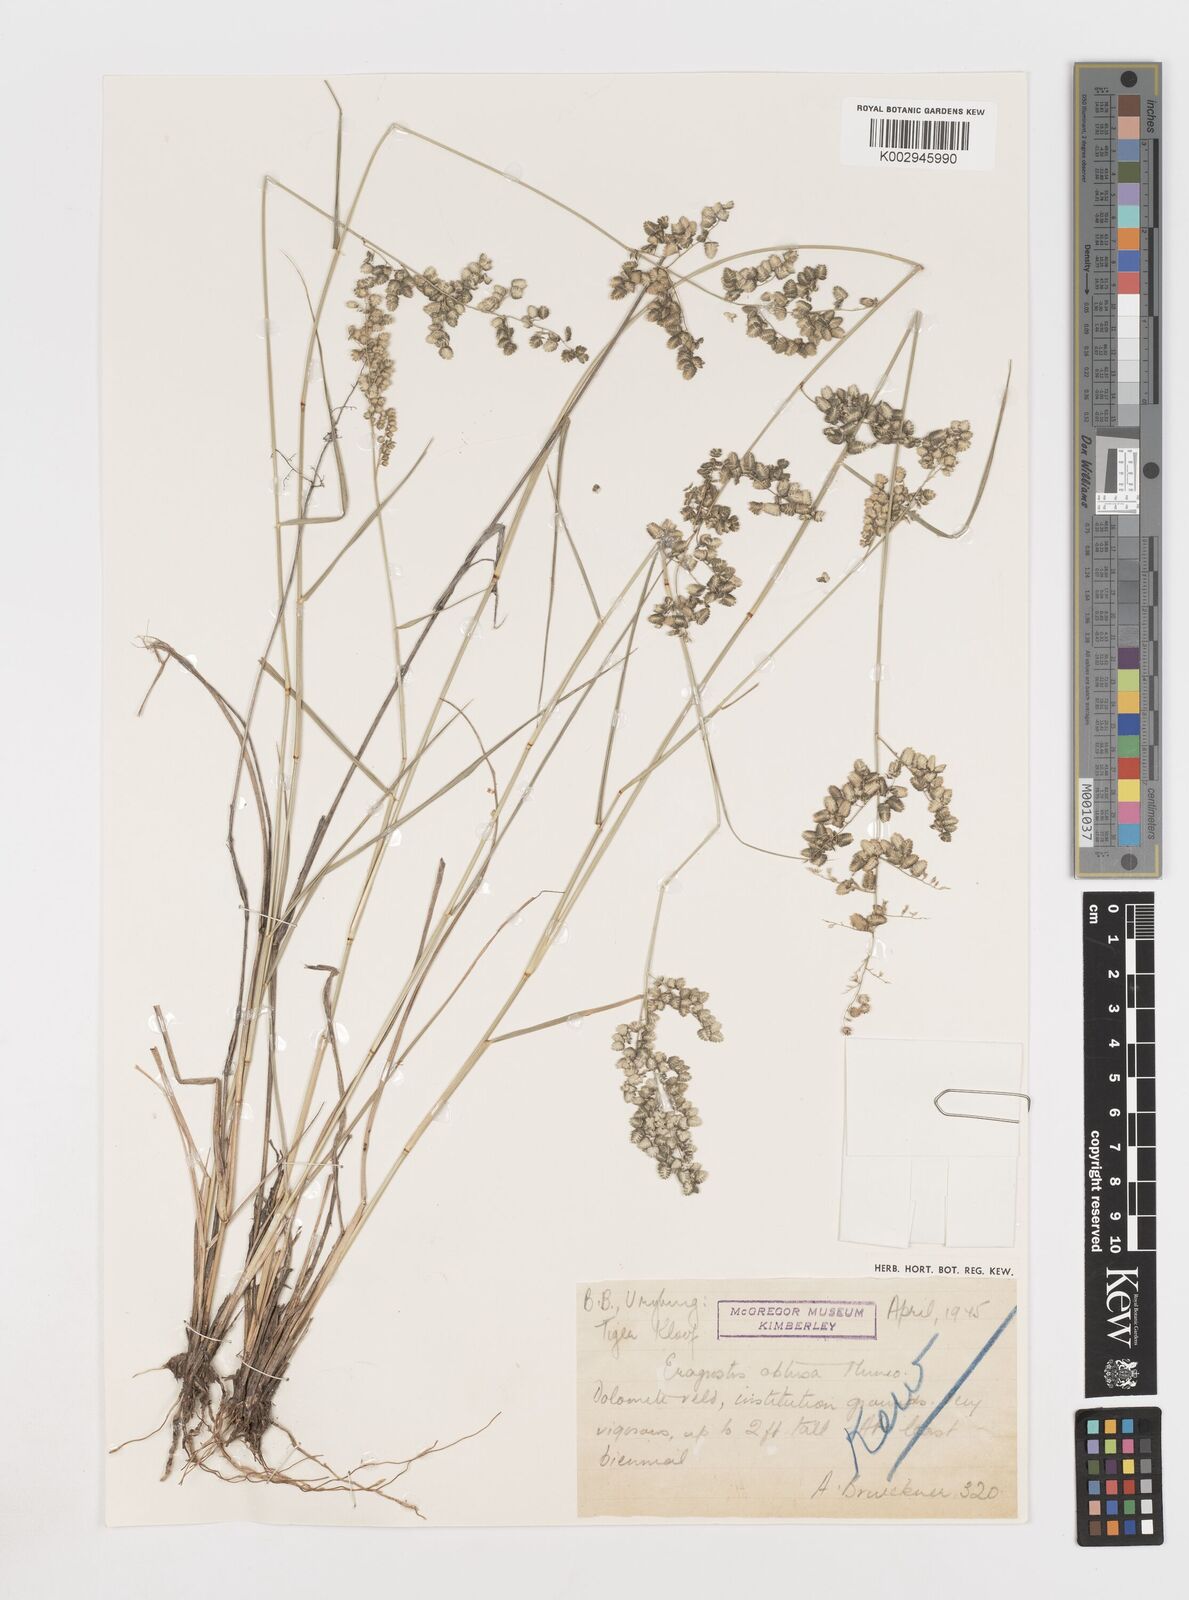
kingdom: Plantae
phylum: Tracheophyta
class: Liliopsida
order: Poales
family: Poaceae
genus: Eragrostis
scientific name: Eragrostis obtusa
